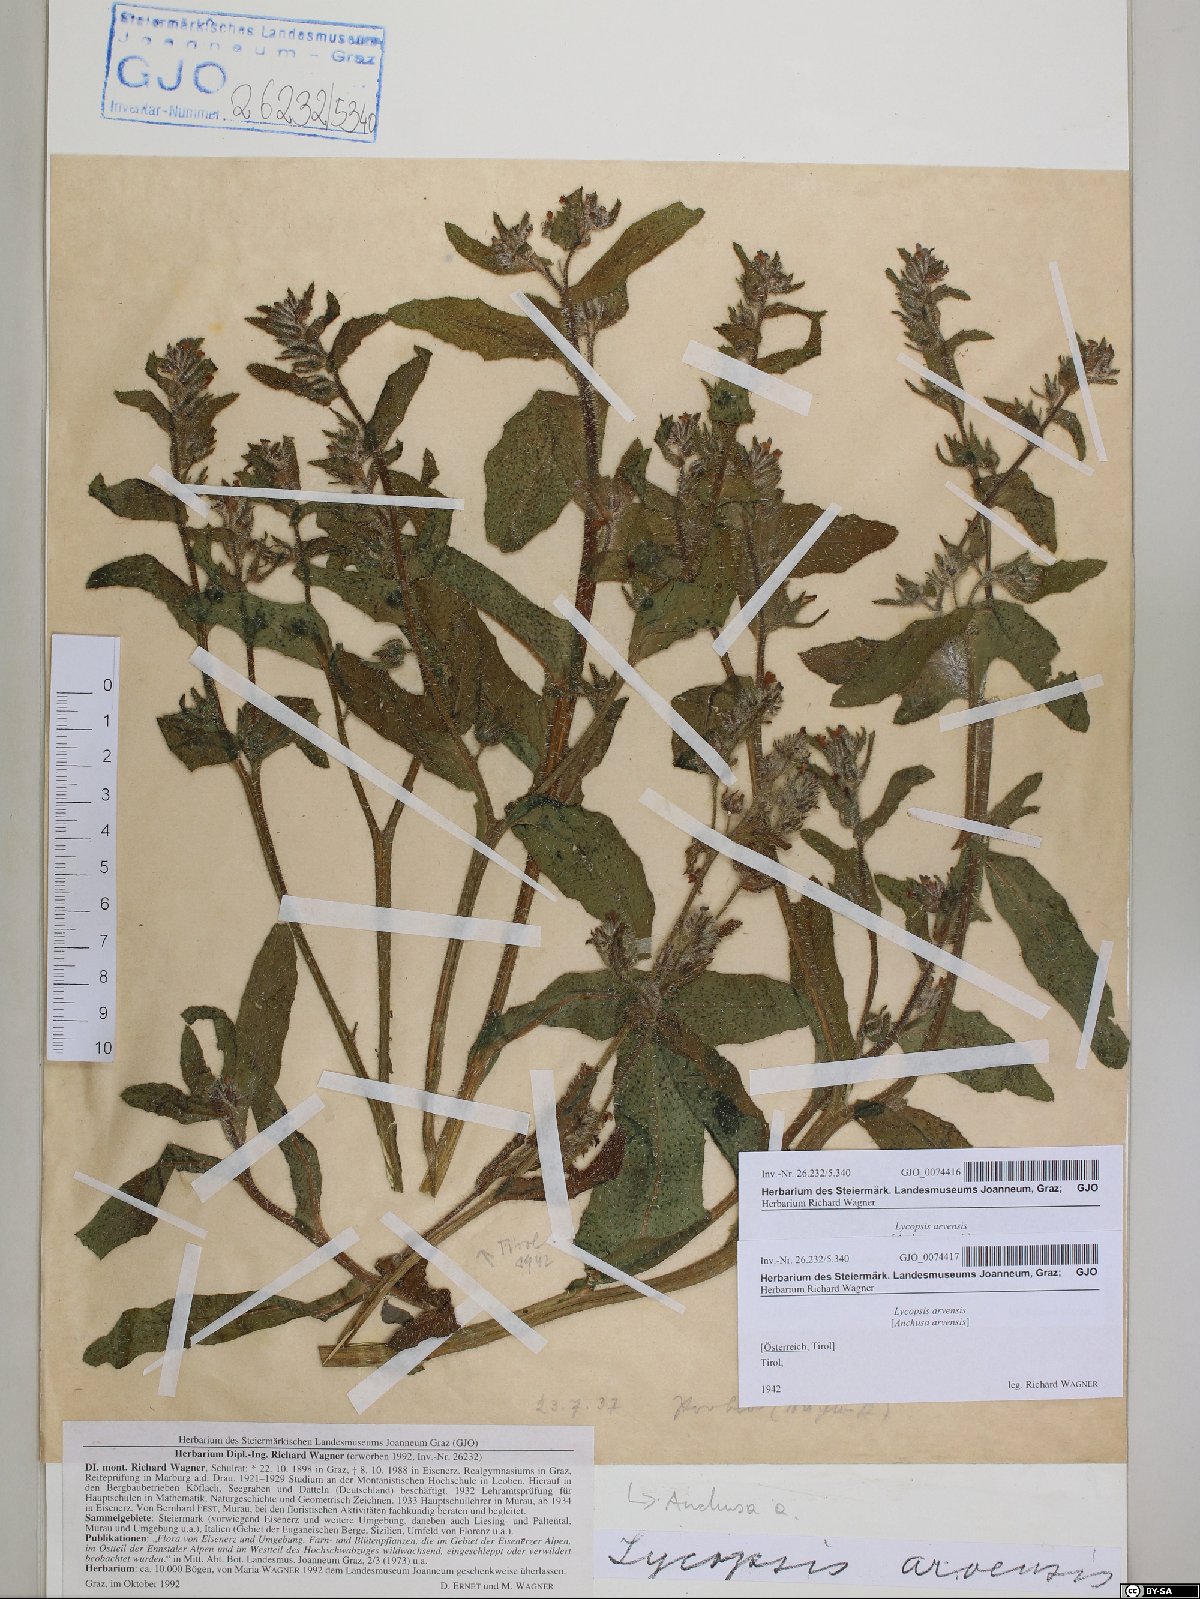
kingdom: Plantae
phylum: Tracheophyta
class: Magnoliopsida
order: Boraginales
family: Boraginaceae
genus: Lycopsis
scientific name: Lycopsis arvensis
